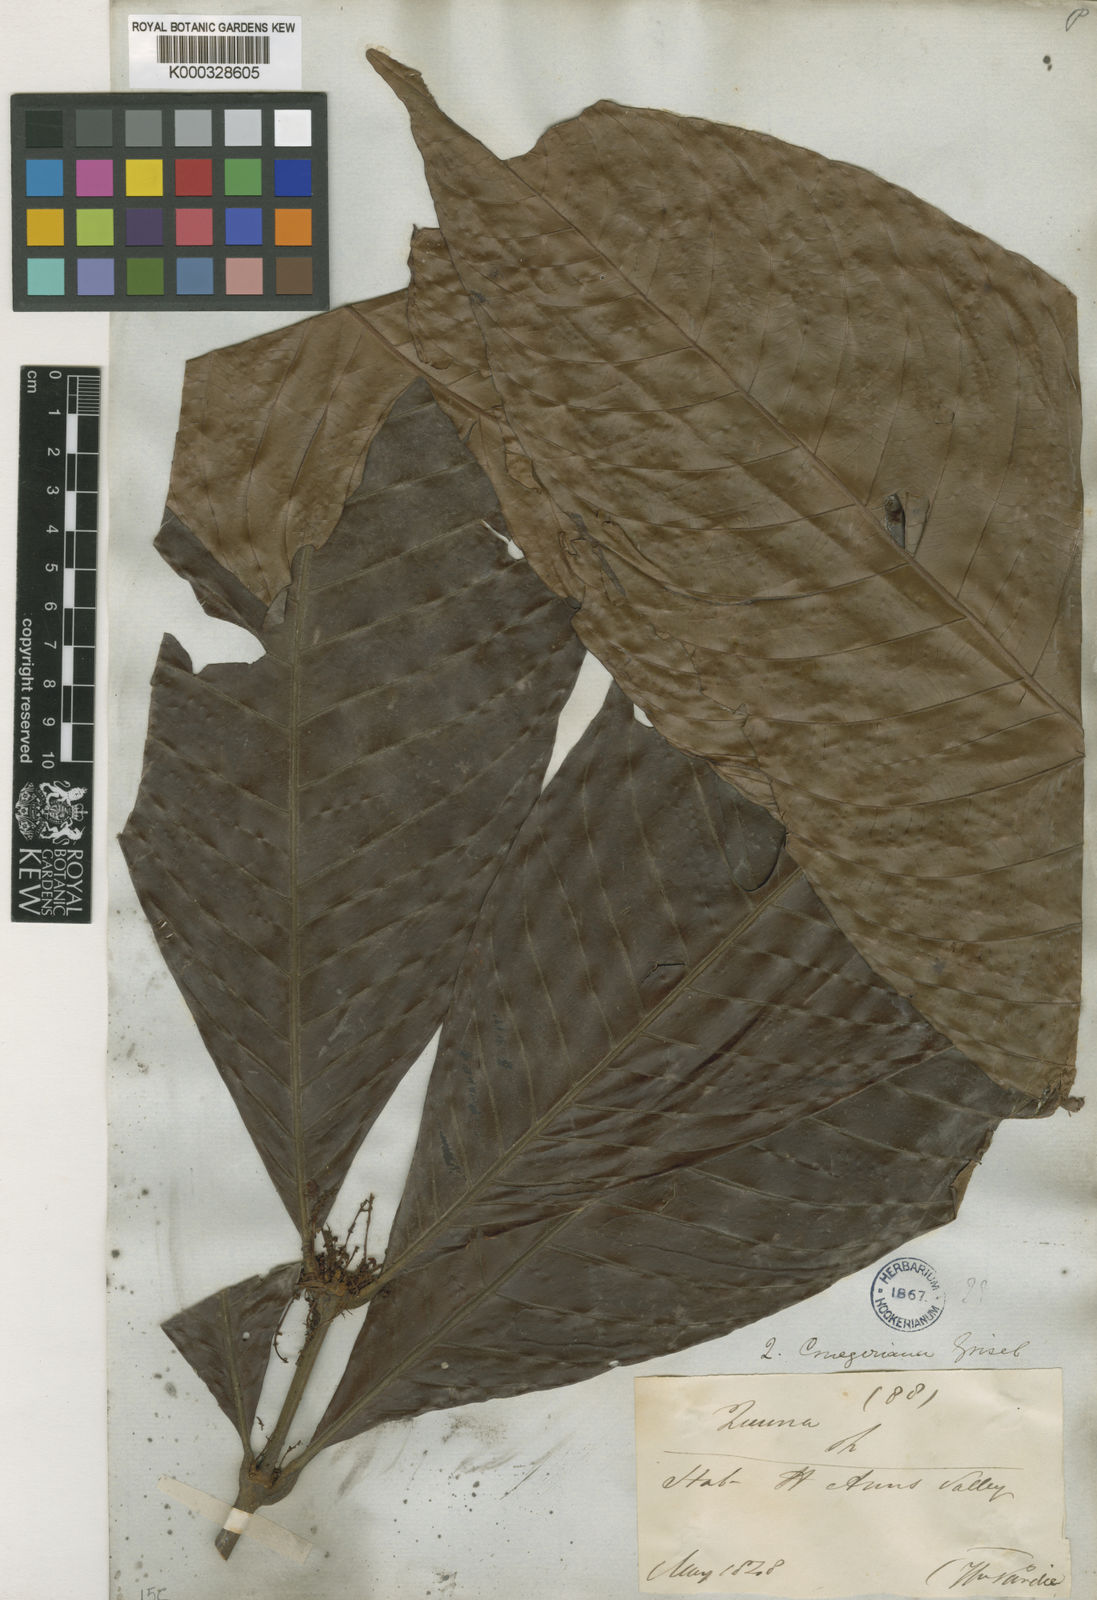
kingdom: Plantae
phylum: Tracheophyta
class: Magnoliopsida
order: Malpighiales
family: Quiinaceae
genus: Quiina
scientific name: Quiina cruegeriana
